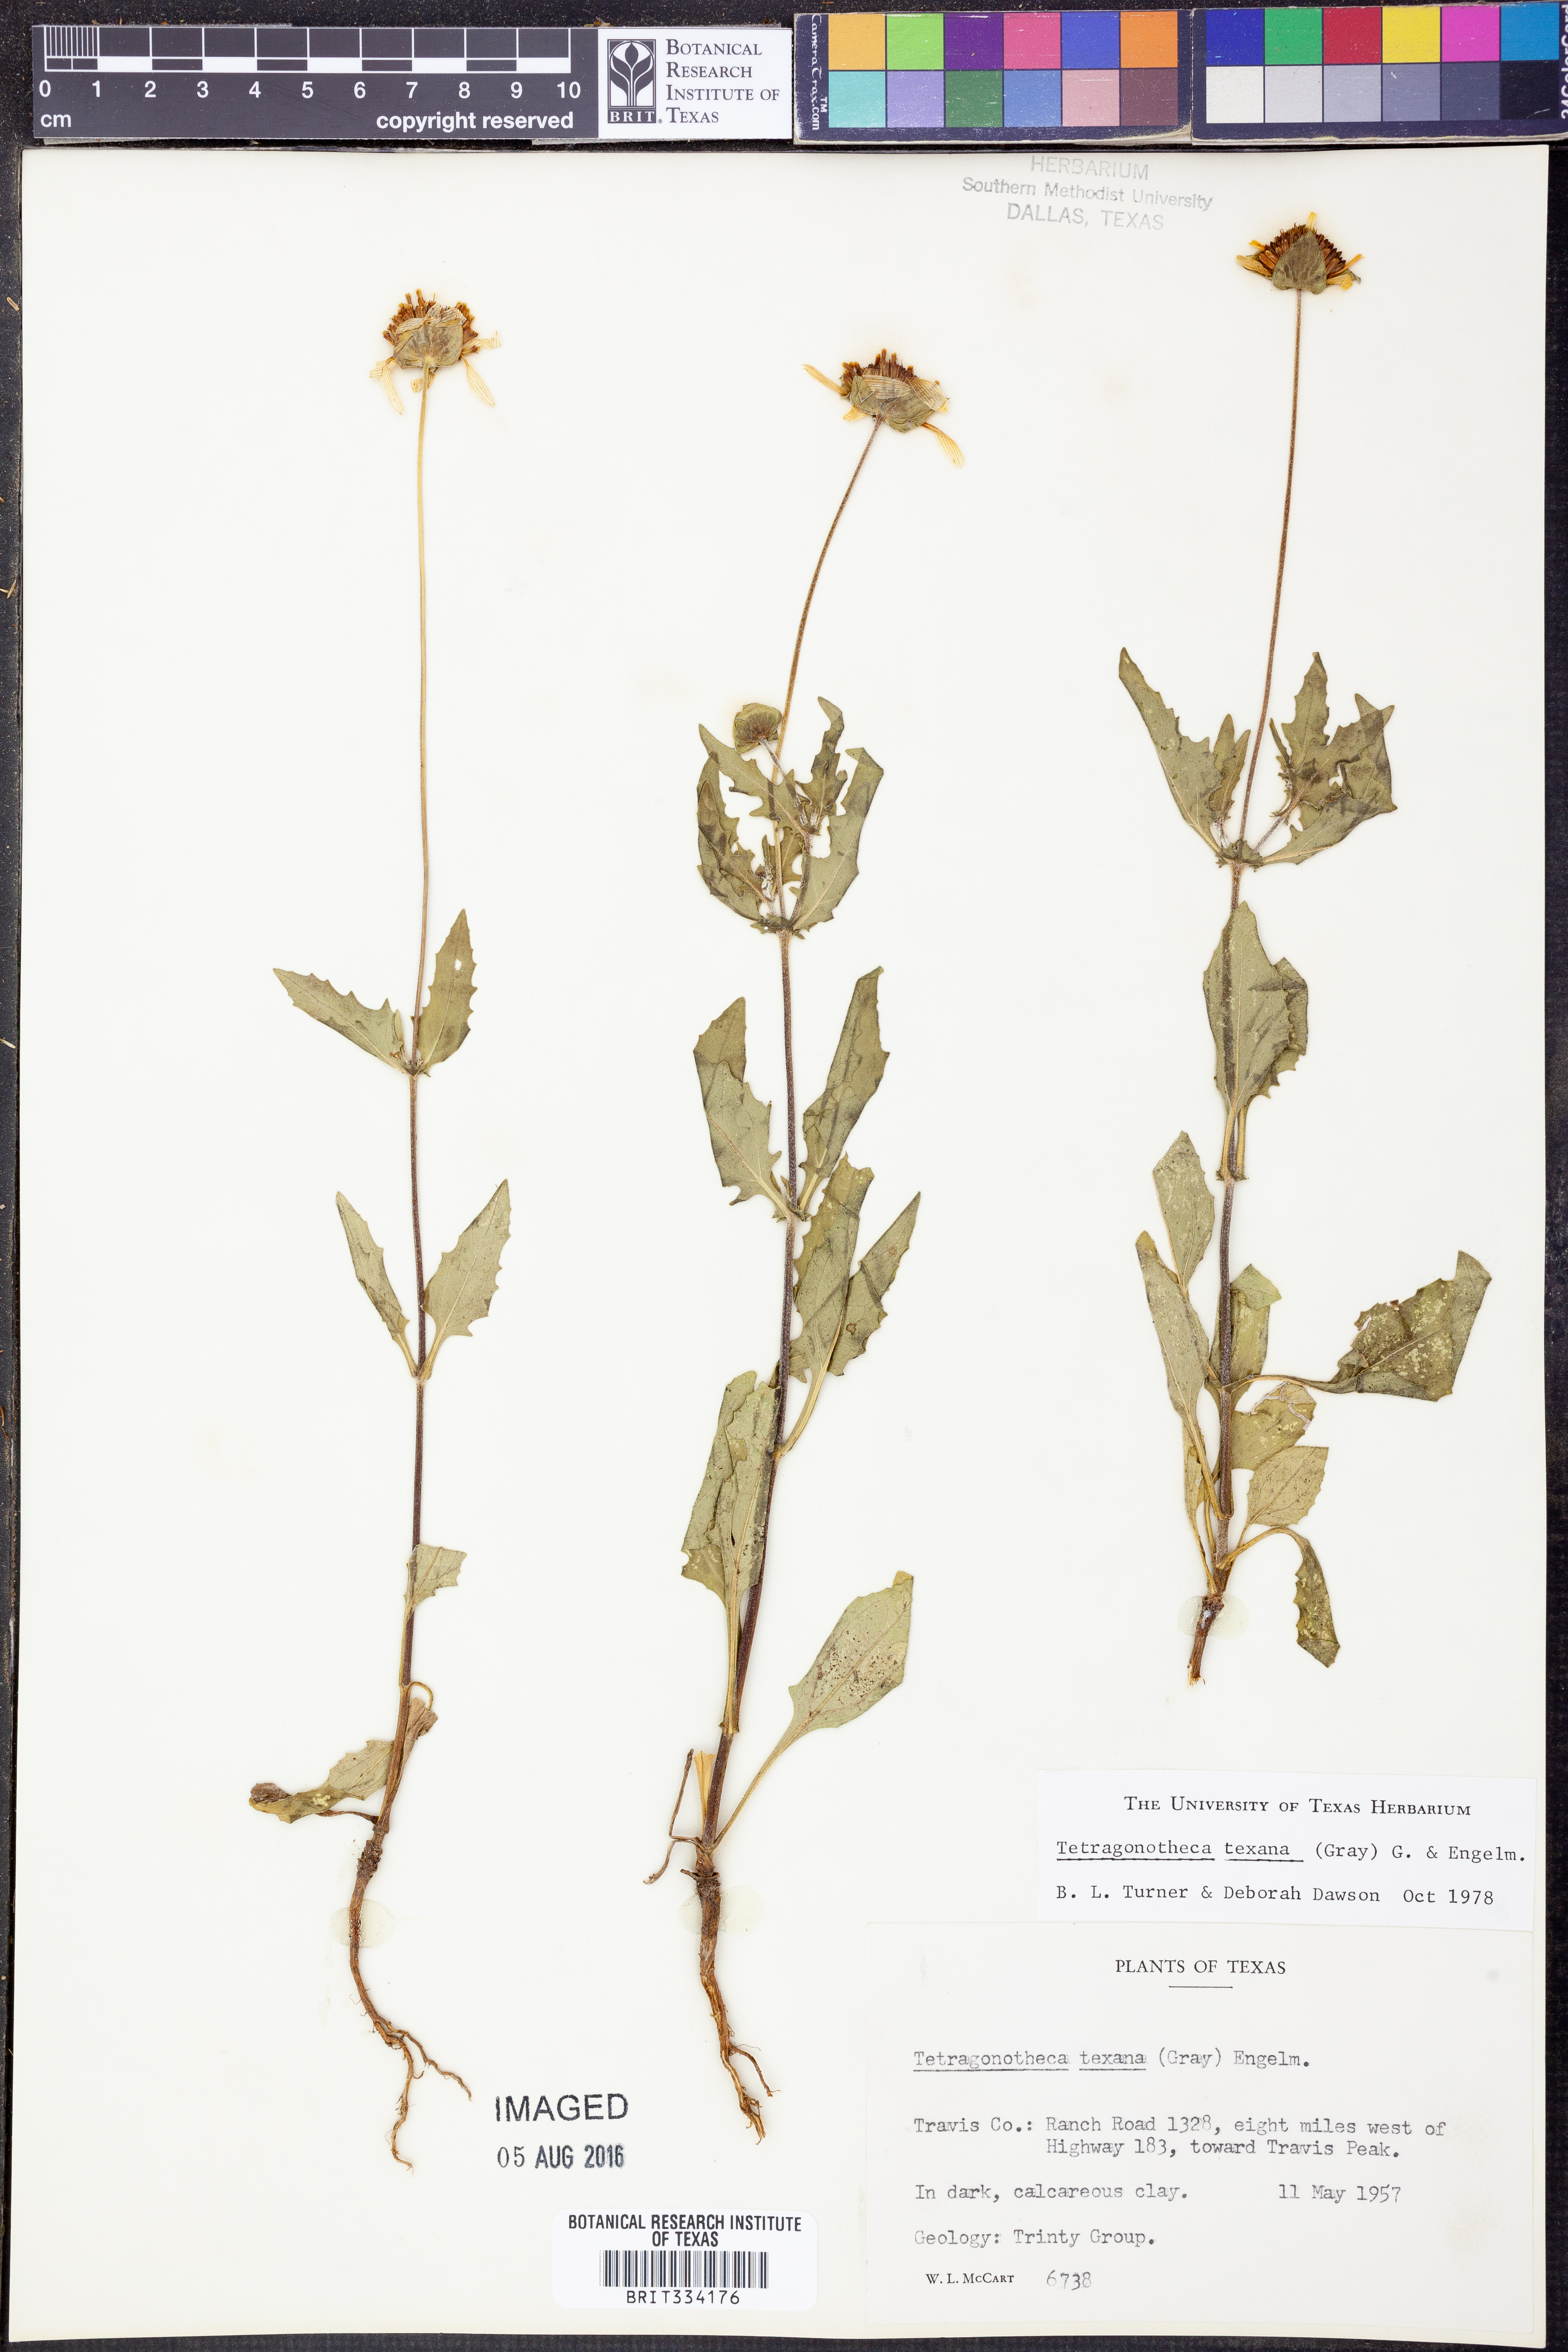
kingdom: Plantae
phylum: Tracheophyta
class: Magnoliopsida
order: Asterales
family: Asteraceae
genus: Tetragonotheca
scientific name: Tetragonotheca texana
